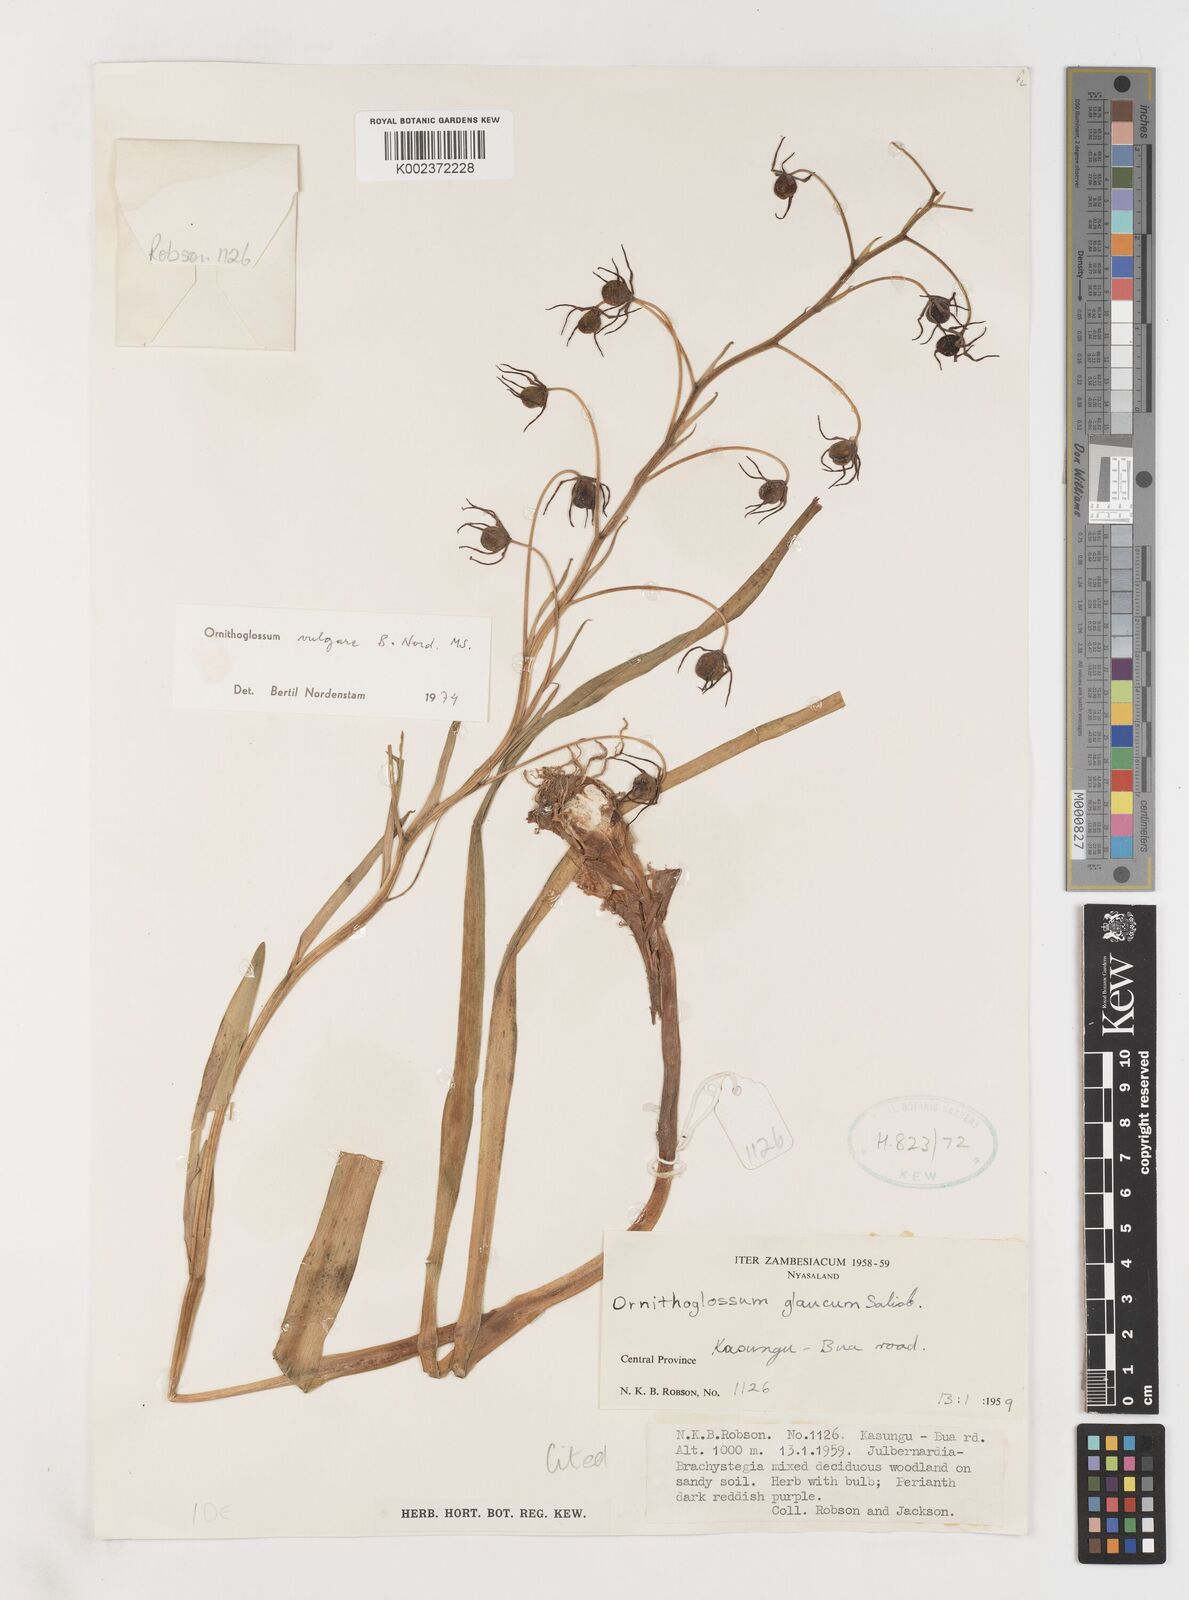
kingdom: Plantae
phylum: Tracheophyta
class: Liliopsida
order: Liliales
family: Colchicaceae
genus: Ornithoglossum
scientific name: Ornithoglossum vulgare
